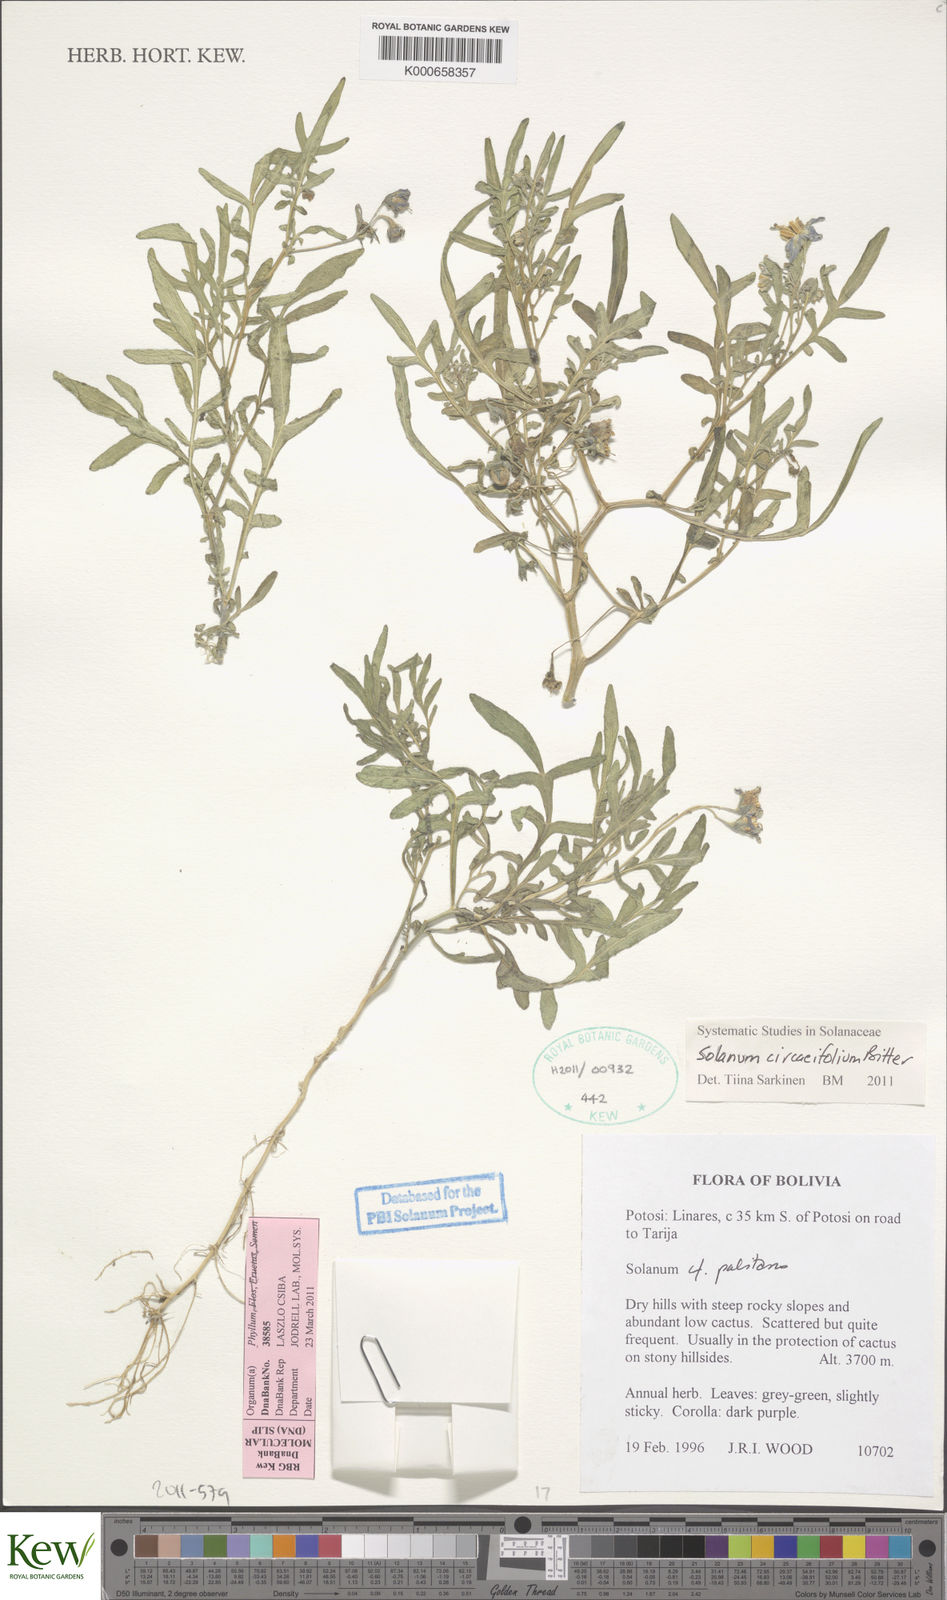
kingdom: Plantae
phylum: Tracheophyta
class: Magnoliopsida
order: Solanales
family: Solanaceae
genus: Solanum
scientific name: Solanum stipuloideum
